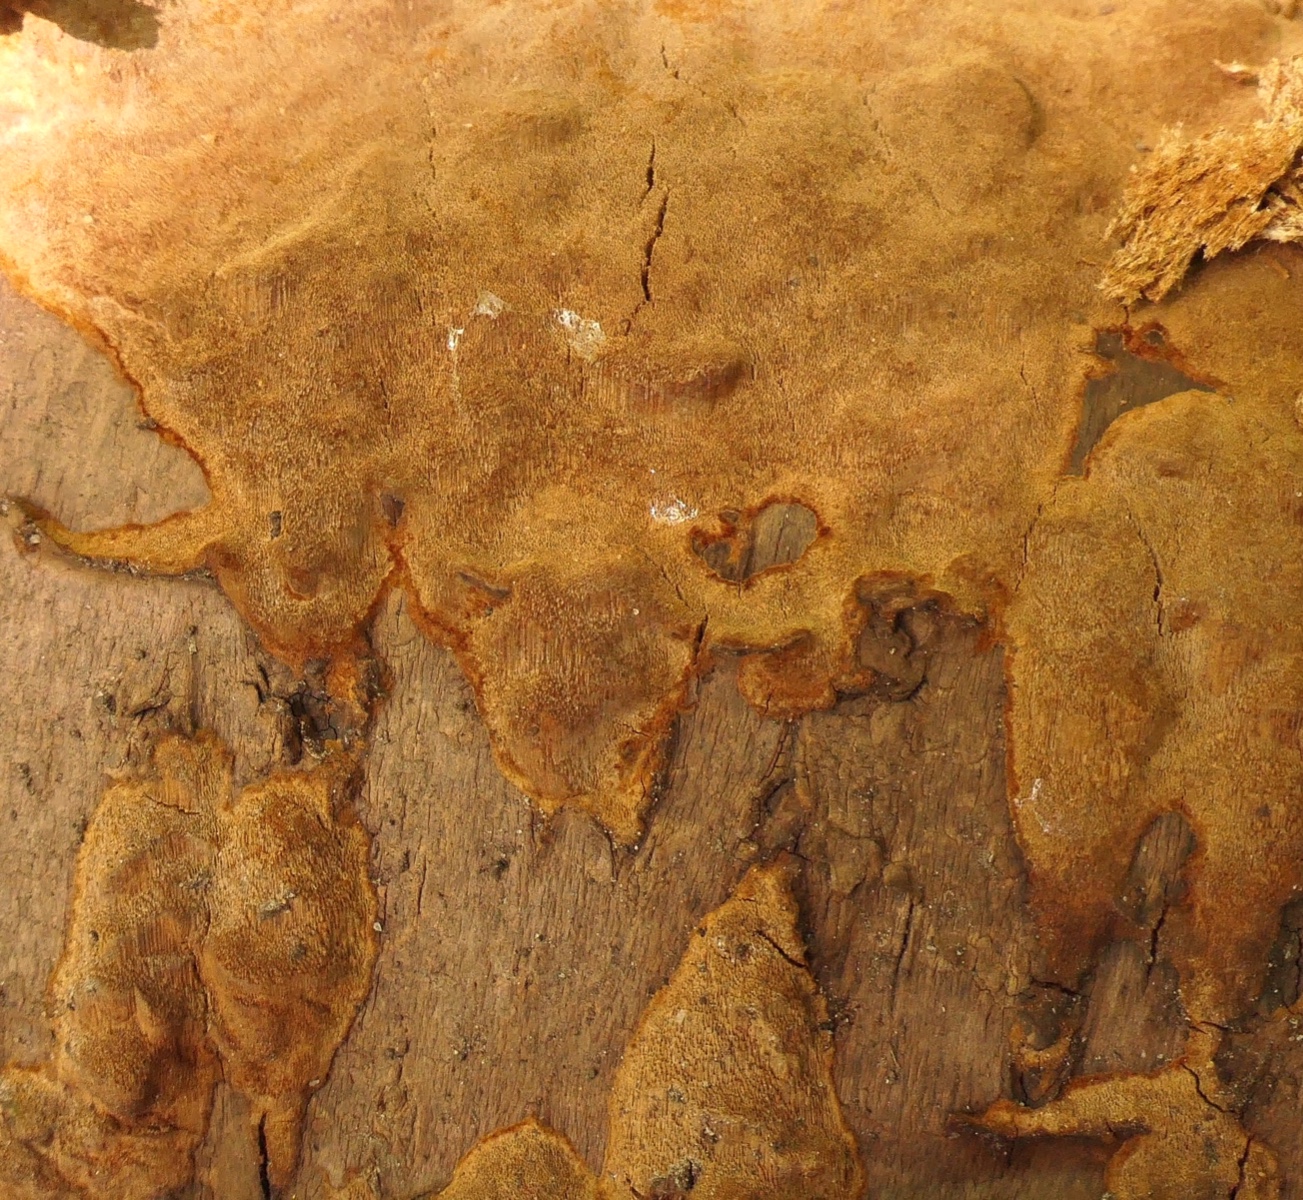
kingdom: Fungi
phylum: Basidiomycota
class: Agaricomycetes
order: Hymenochaetales
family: Hymenochaetaceae
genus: Fuscoporia
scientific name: Fuscoporia ferruginosa
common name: rustbrun ildporesvamp
